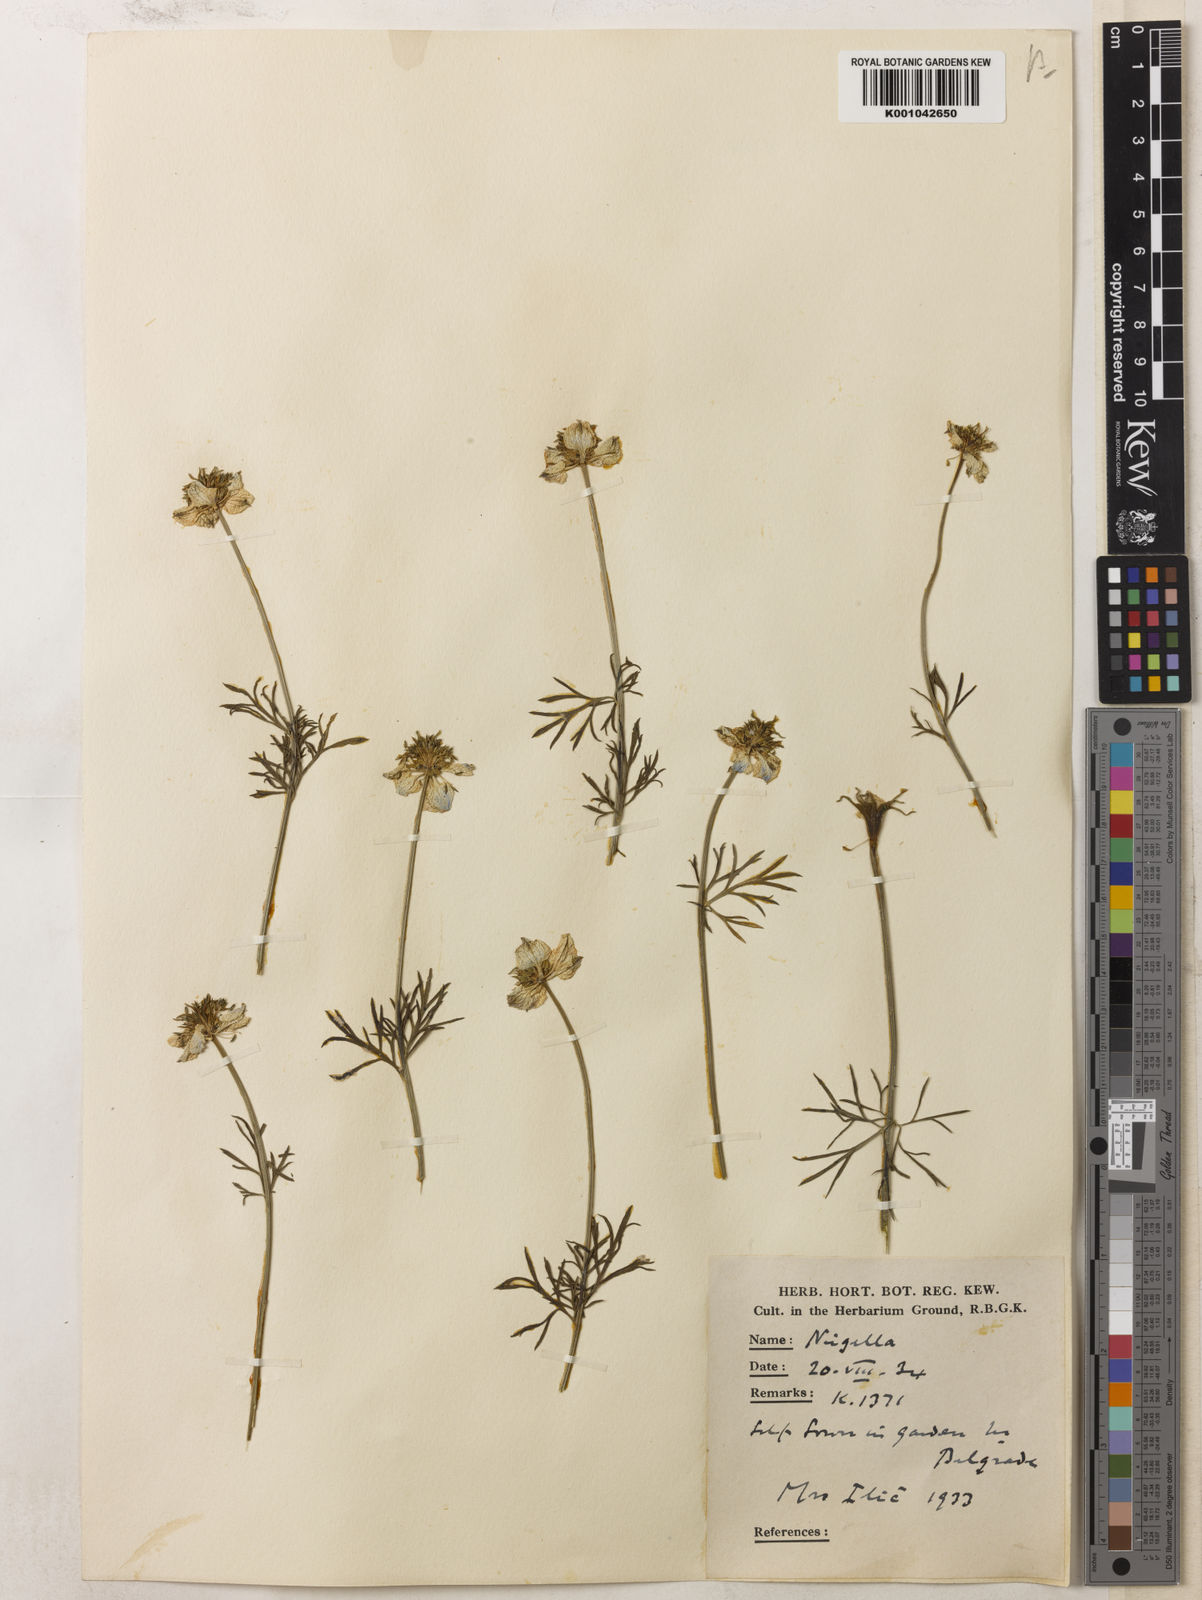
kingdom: Plantae
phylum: Tracheophyta
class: Magnoliopsida
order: Ranunculales
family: Ranunculaceae
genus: Nigella
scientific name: Nigella arvensis
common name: Wild fennel-flower
